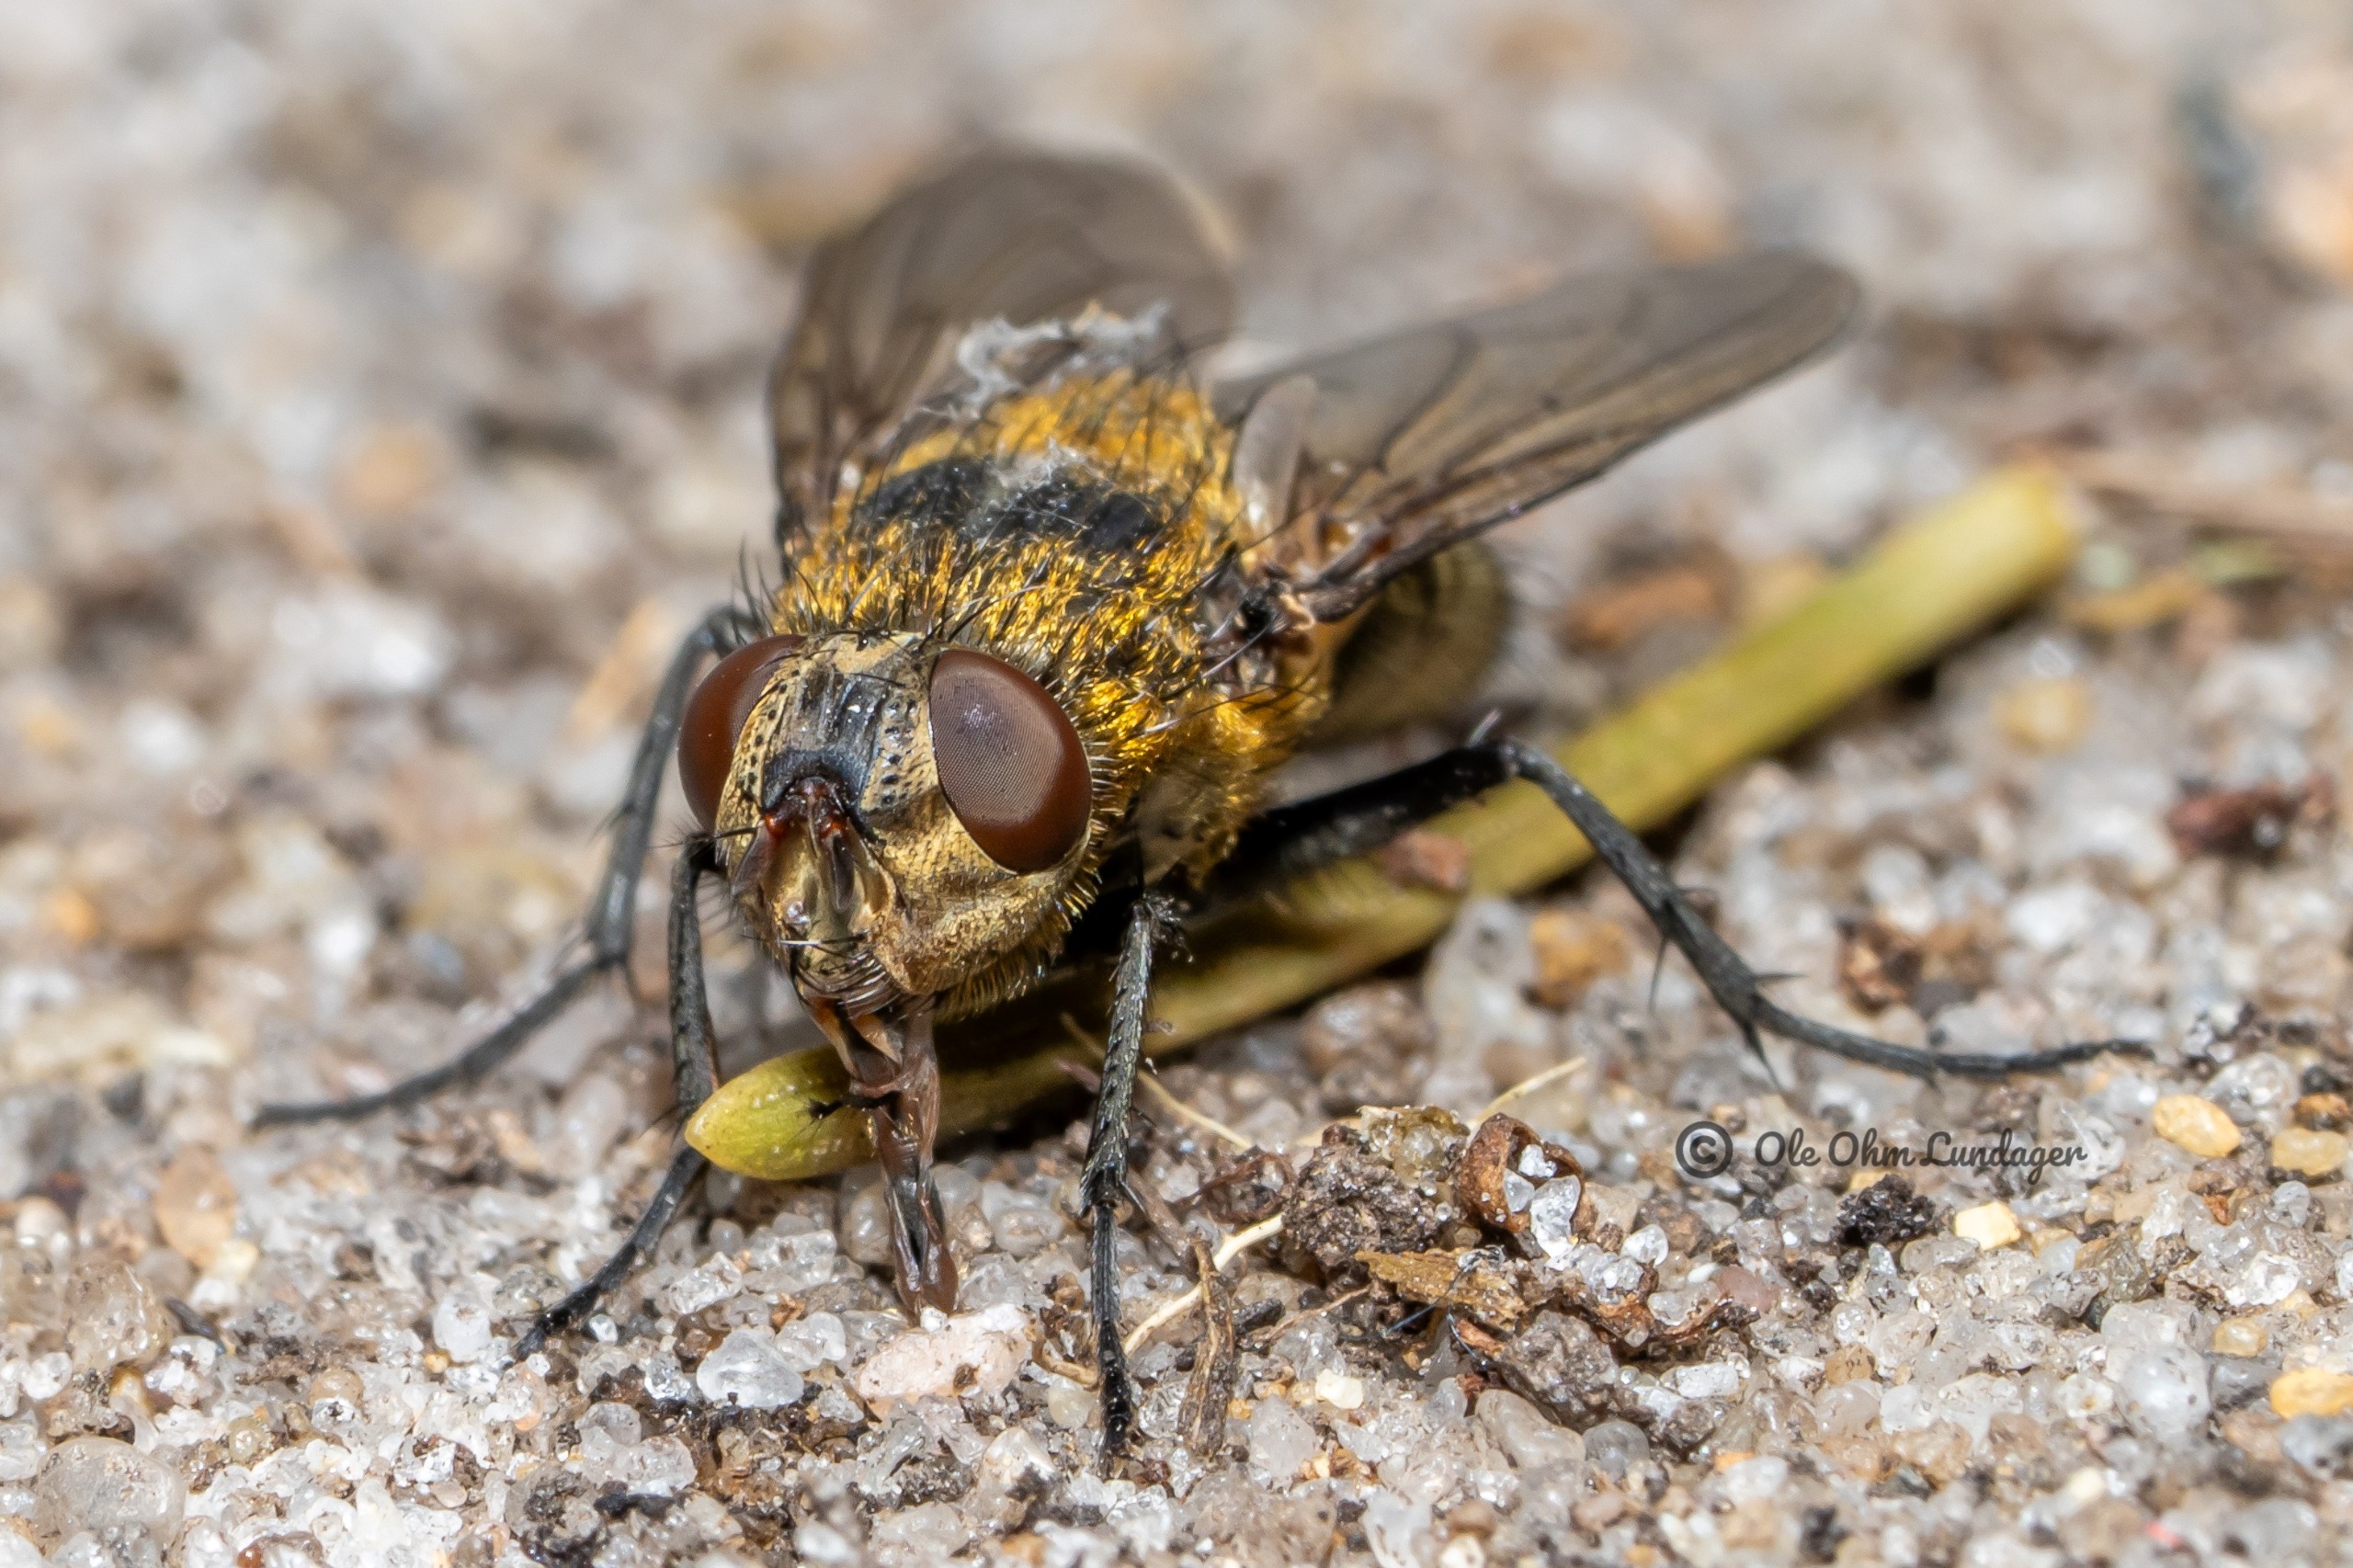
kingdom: Animalia
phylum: Arthropoda
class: Insecta
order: Diptera
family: Polleniidae
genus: Pollenia
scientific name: Pollenia
